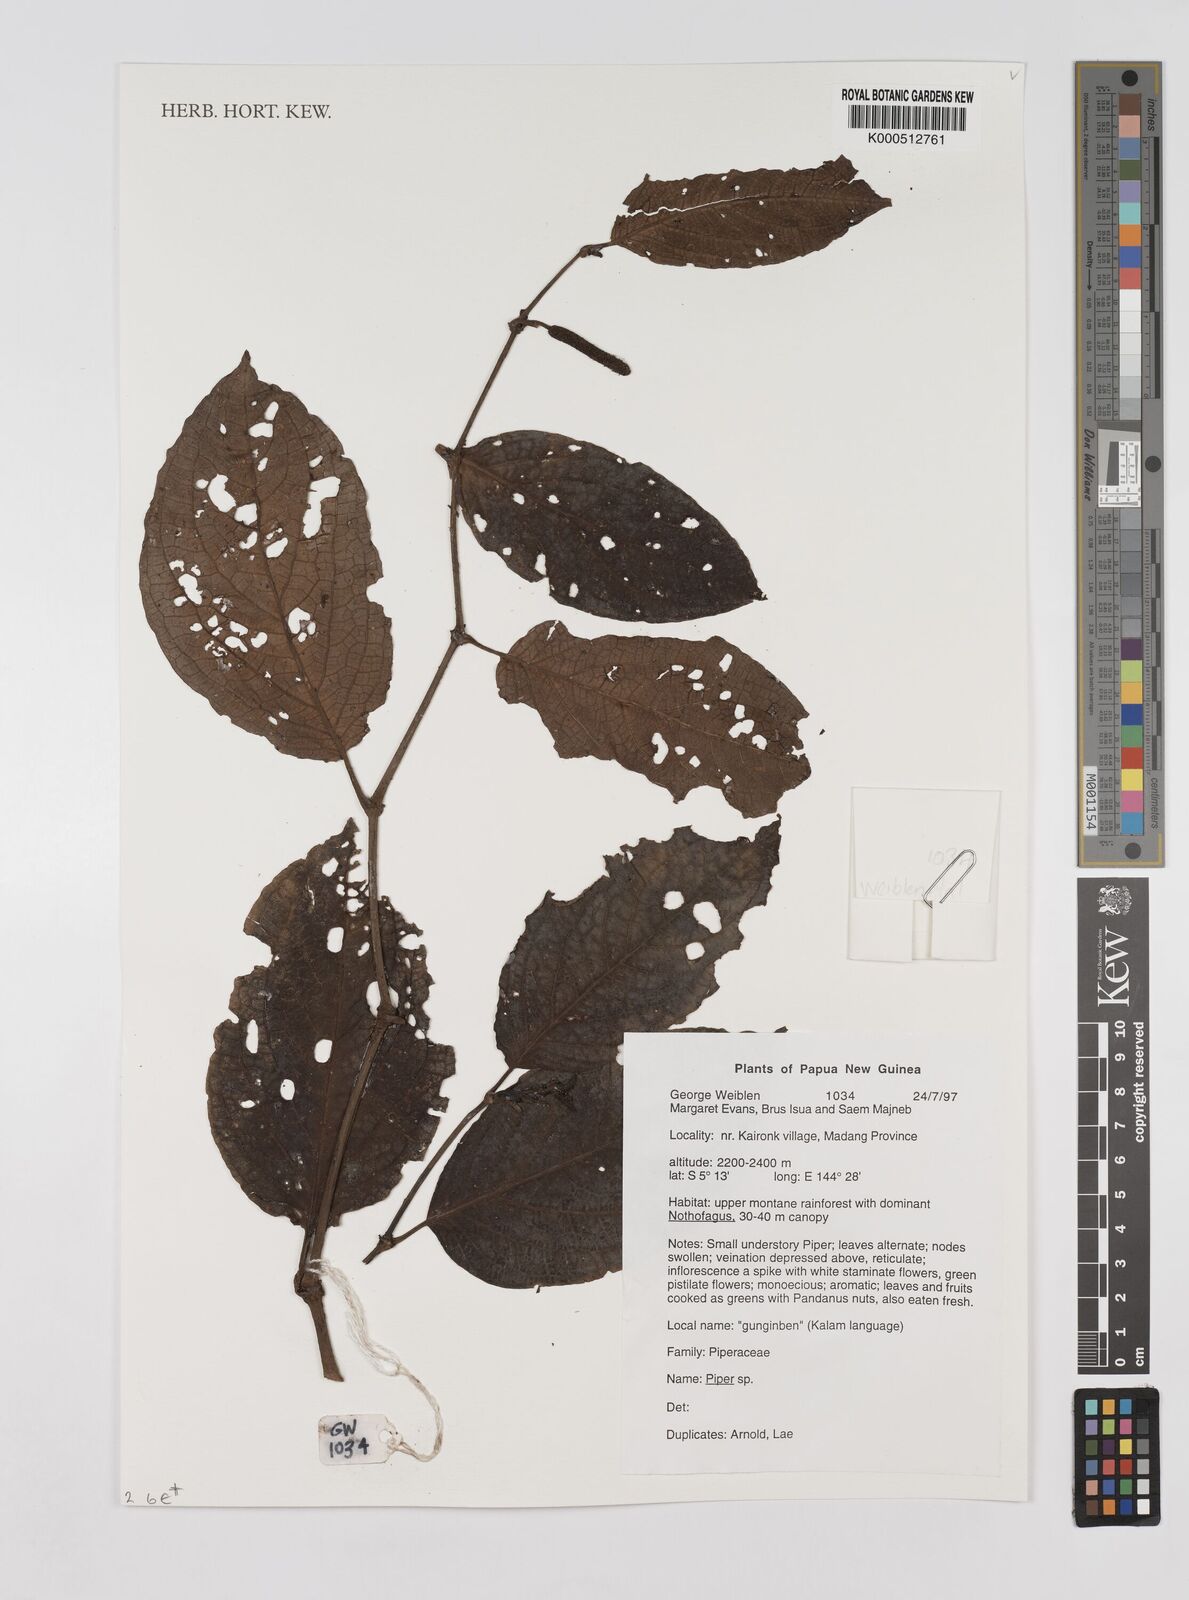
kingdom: Plantae
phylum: Tracheophyta
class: Magnoliopsida
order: Piperales
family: Piperaceae
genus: Piper
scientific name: Piper
